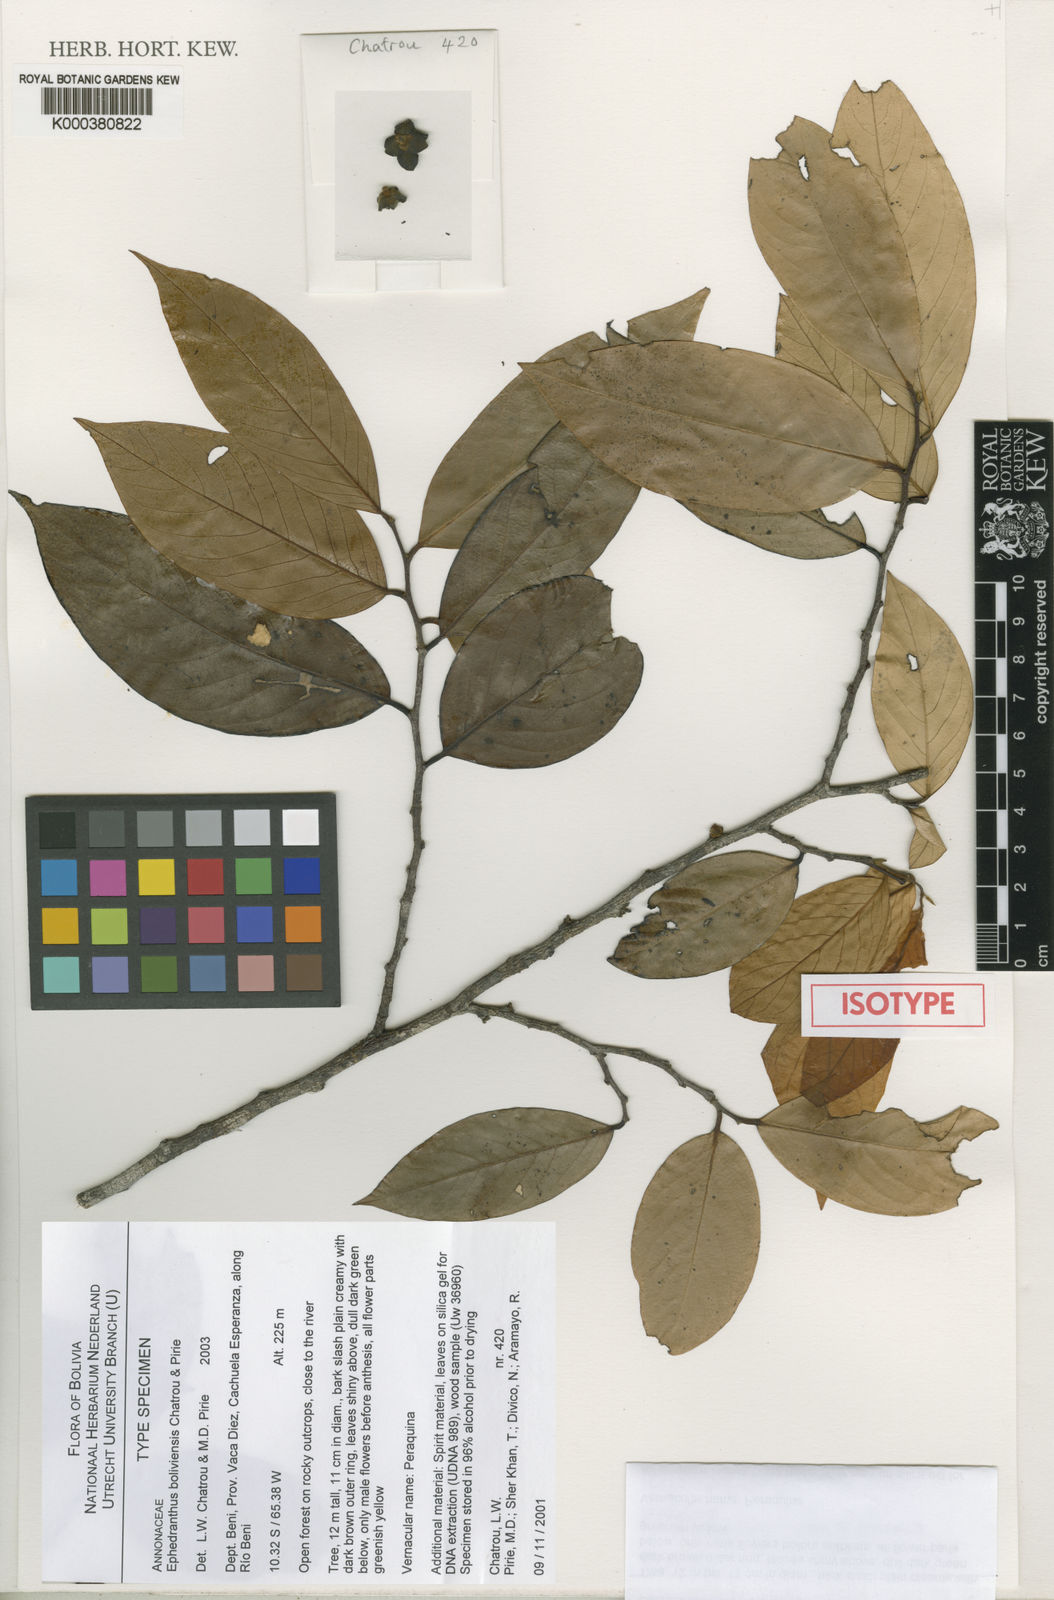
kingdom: Plantae
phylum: Tracheophyta
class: Magnoliopsida
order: Magnoliales
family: Annonaceae
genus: Ephedranthus
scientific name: Ephedranthus boliviensis
